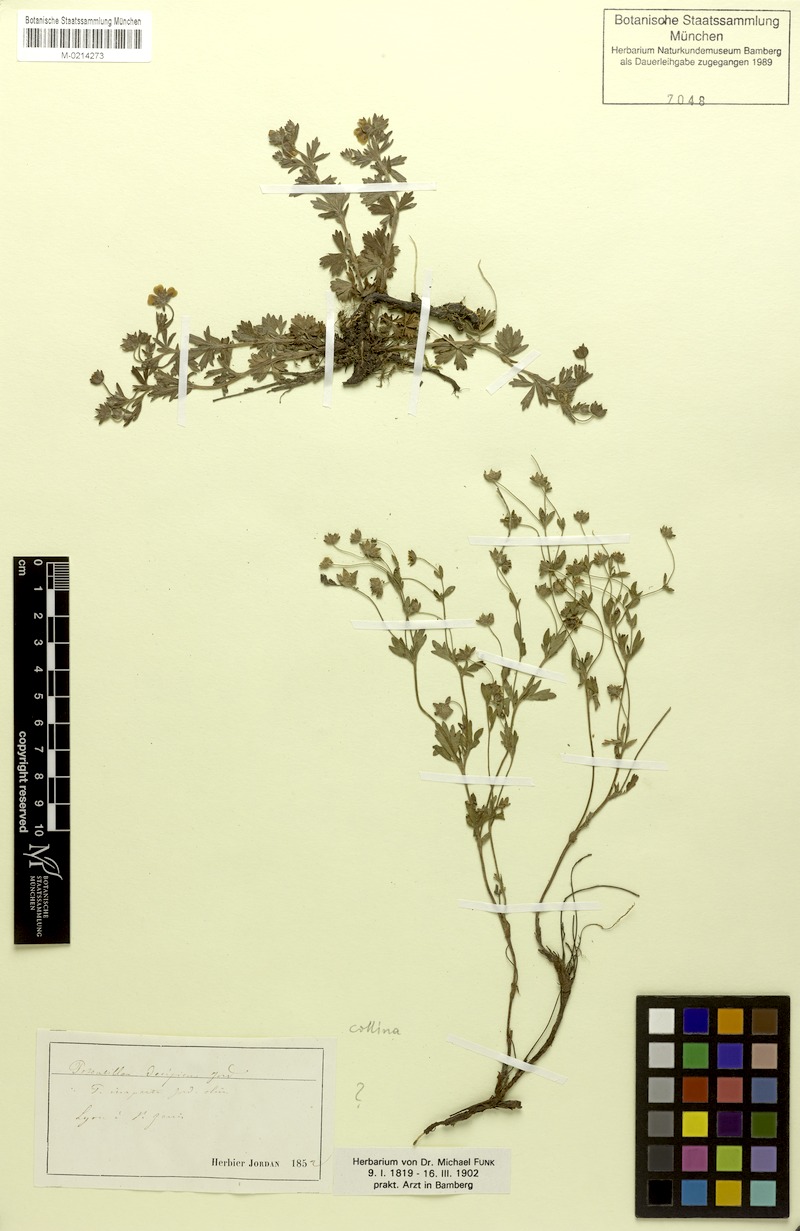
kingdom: Plantae
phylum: Tracheophyta
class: Magnoliopsida
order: Rosales
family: Rosaceae
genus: Potentilla
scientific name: Potentilla collina
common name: Palmleaf cinquefoil
